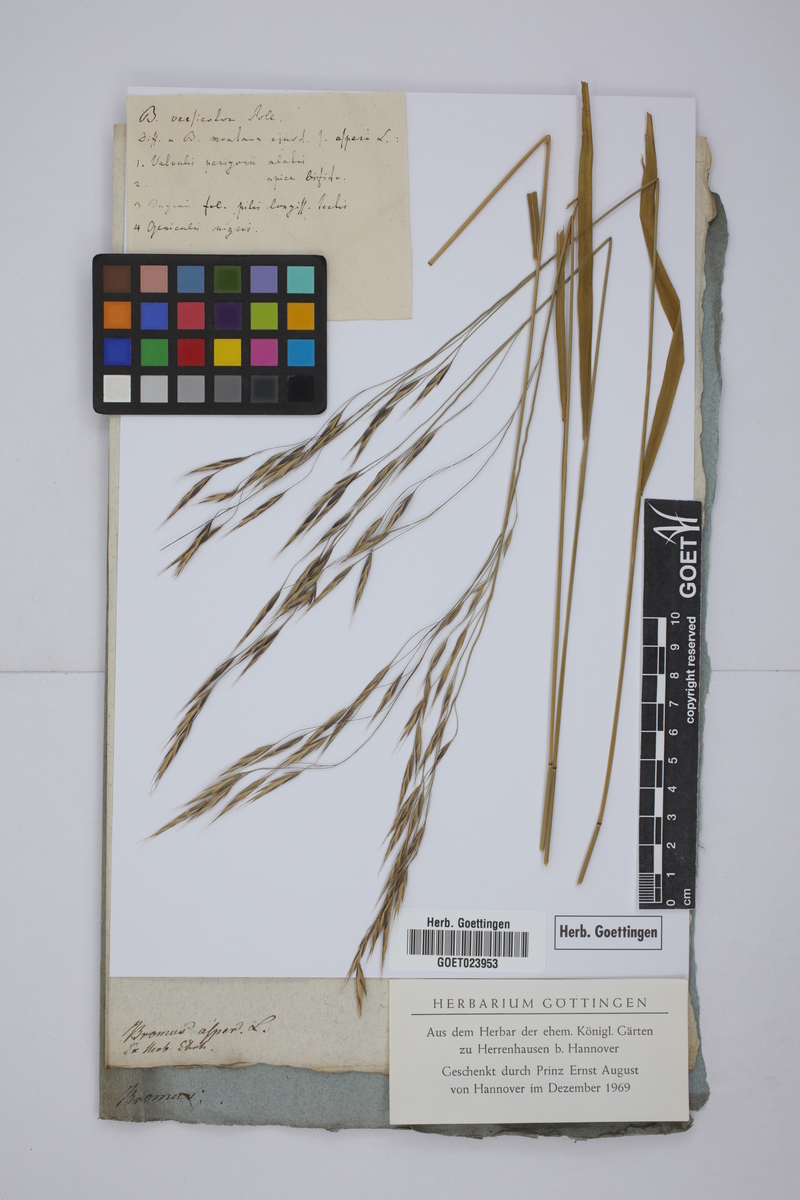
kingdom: Plantae
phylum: Tracheophyta
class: Liliopsida
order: Poales
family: Poaceae
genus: Bromus
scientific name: Bromus erectus
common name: Erect brome
